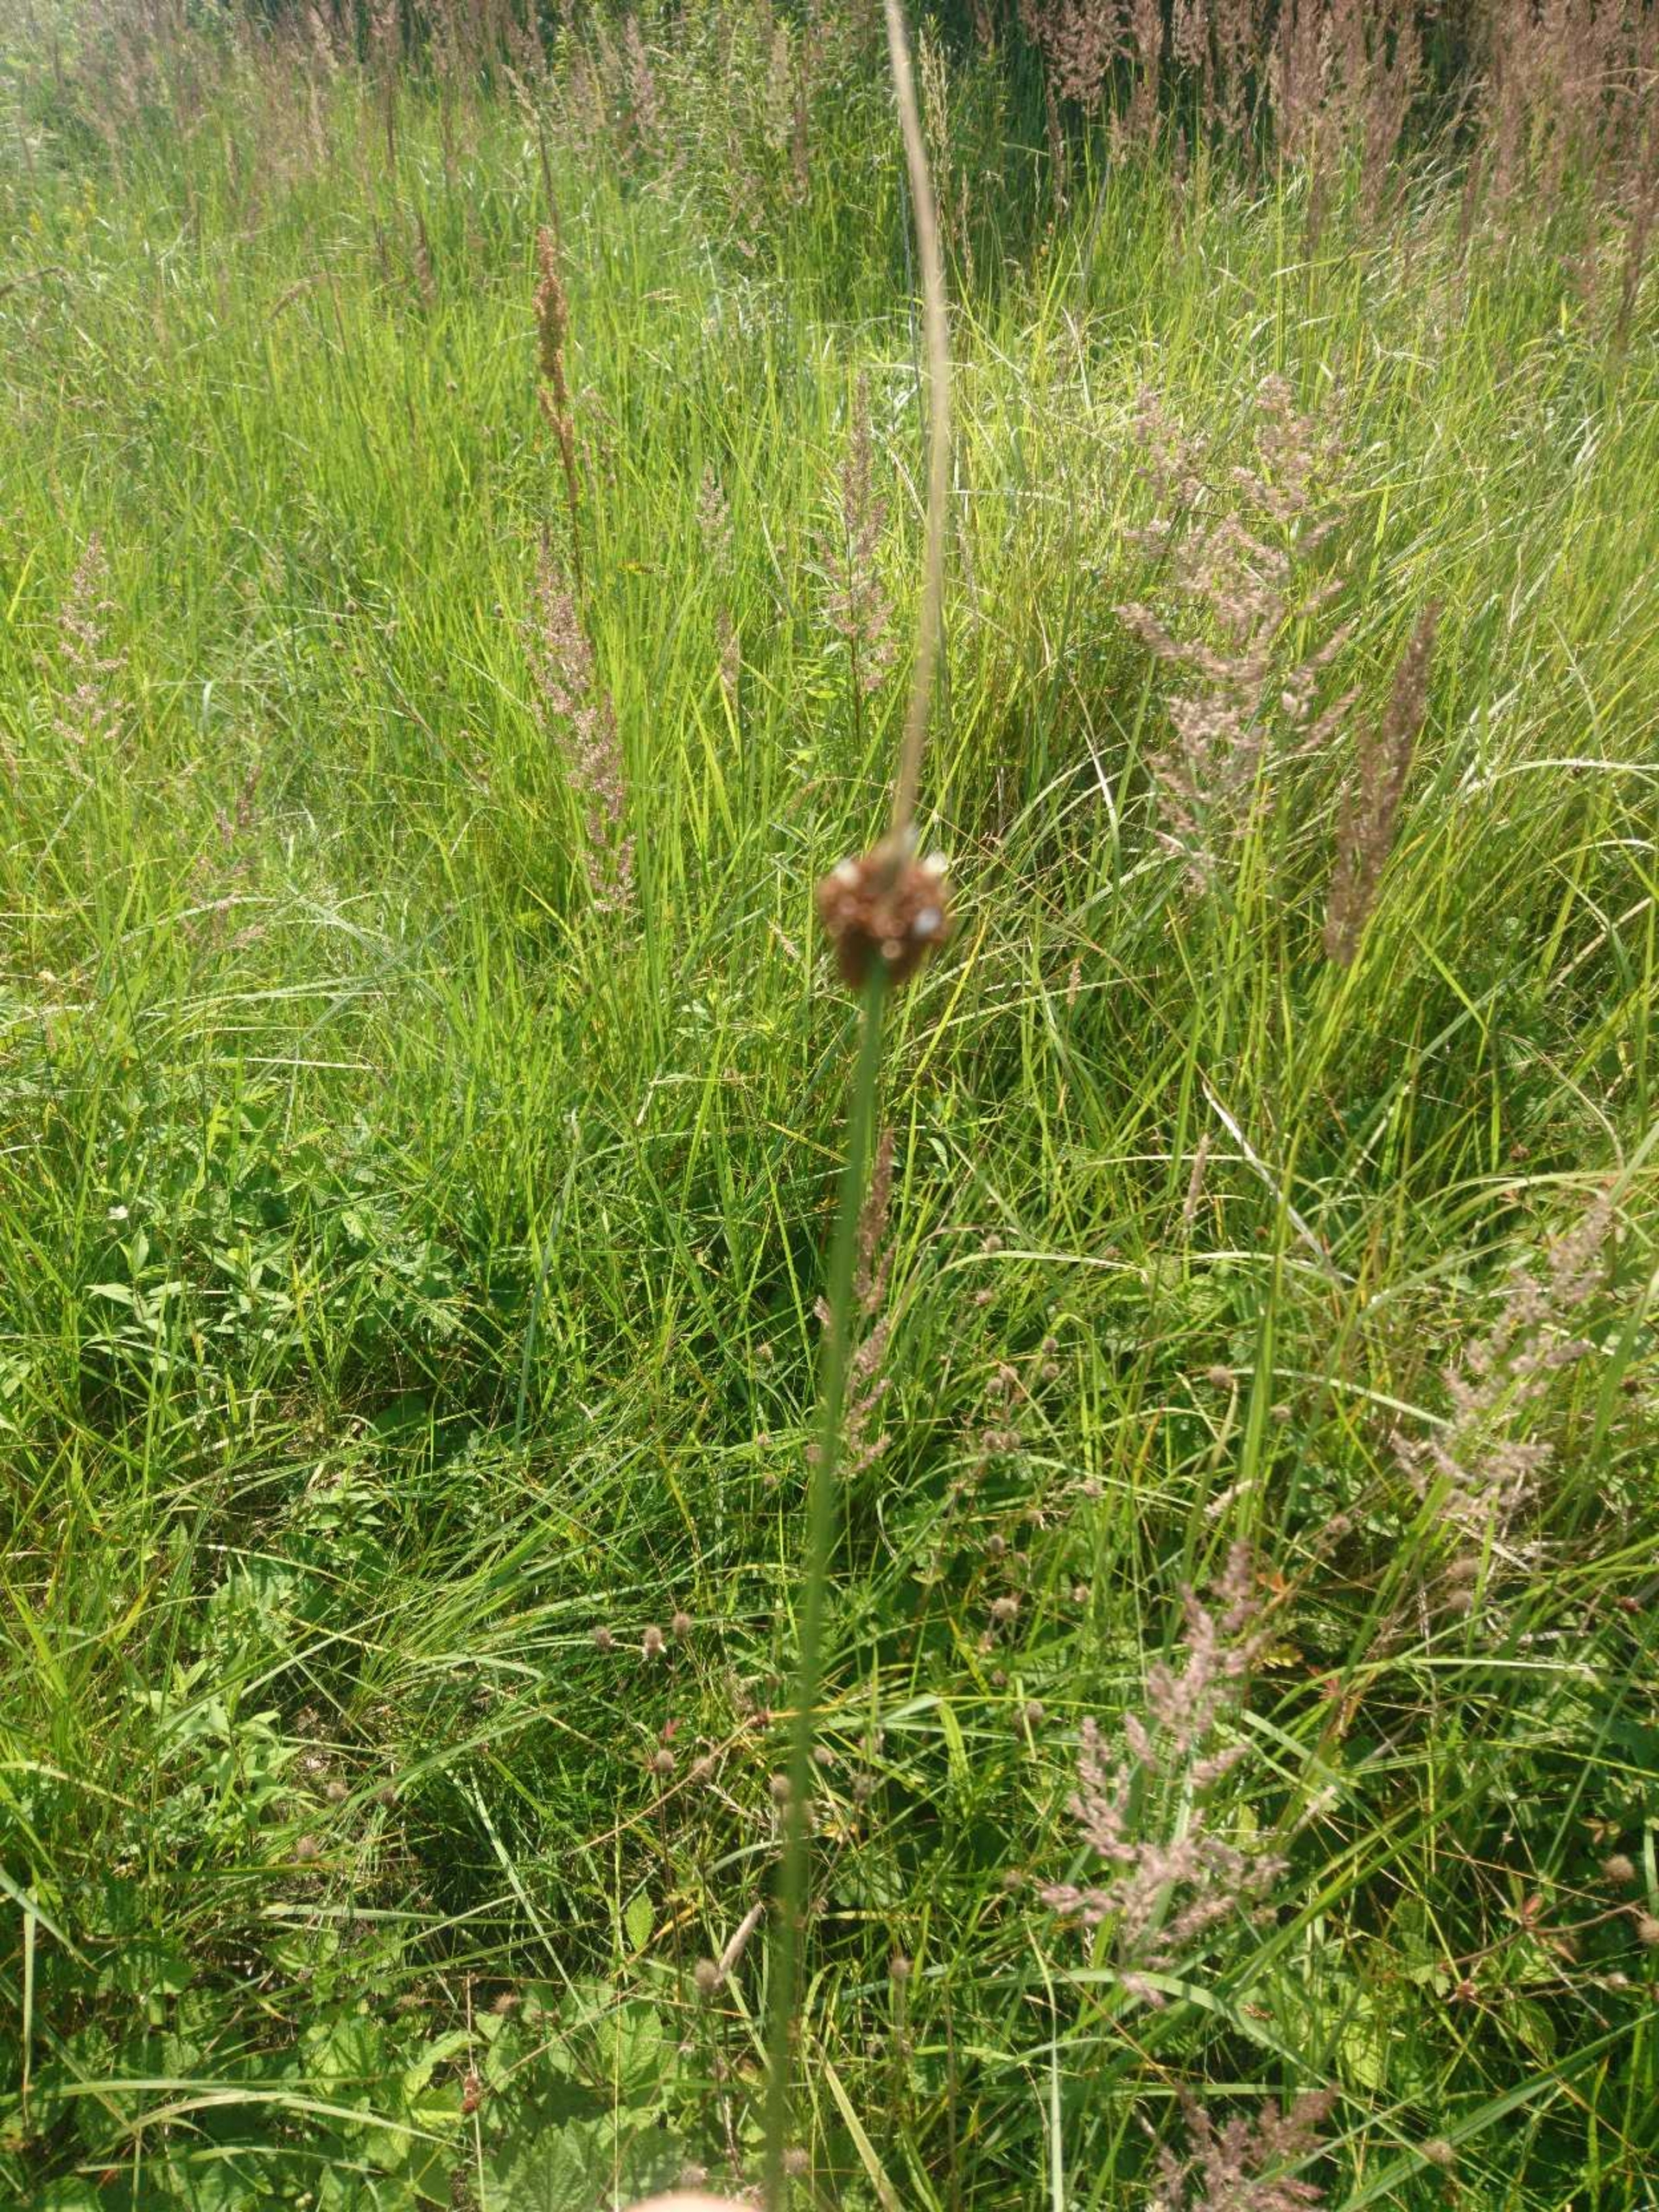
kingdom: Plantae
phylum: Tracheophyta
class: Liliopsida
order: Poales
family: Juncaceae
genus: Juncus
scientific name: Juncus conglomeratus
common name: Knop-siv
